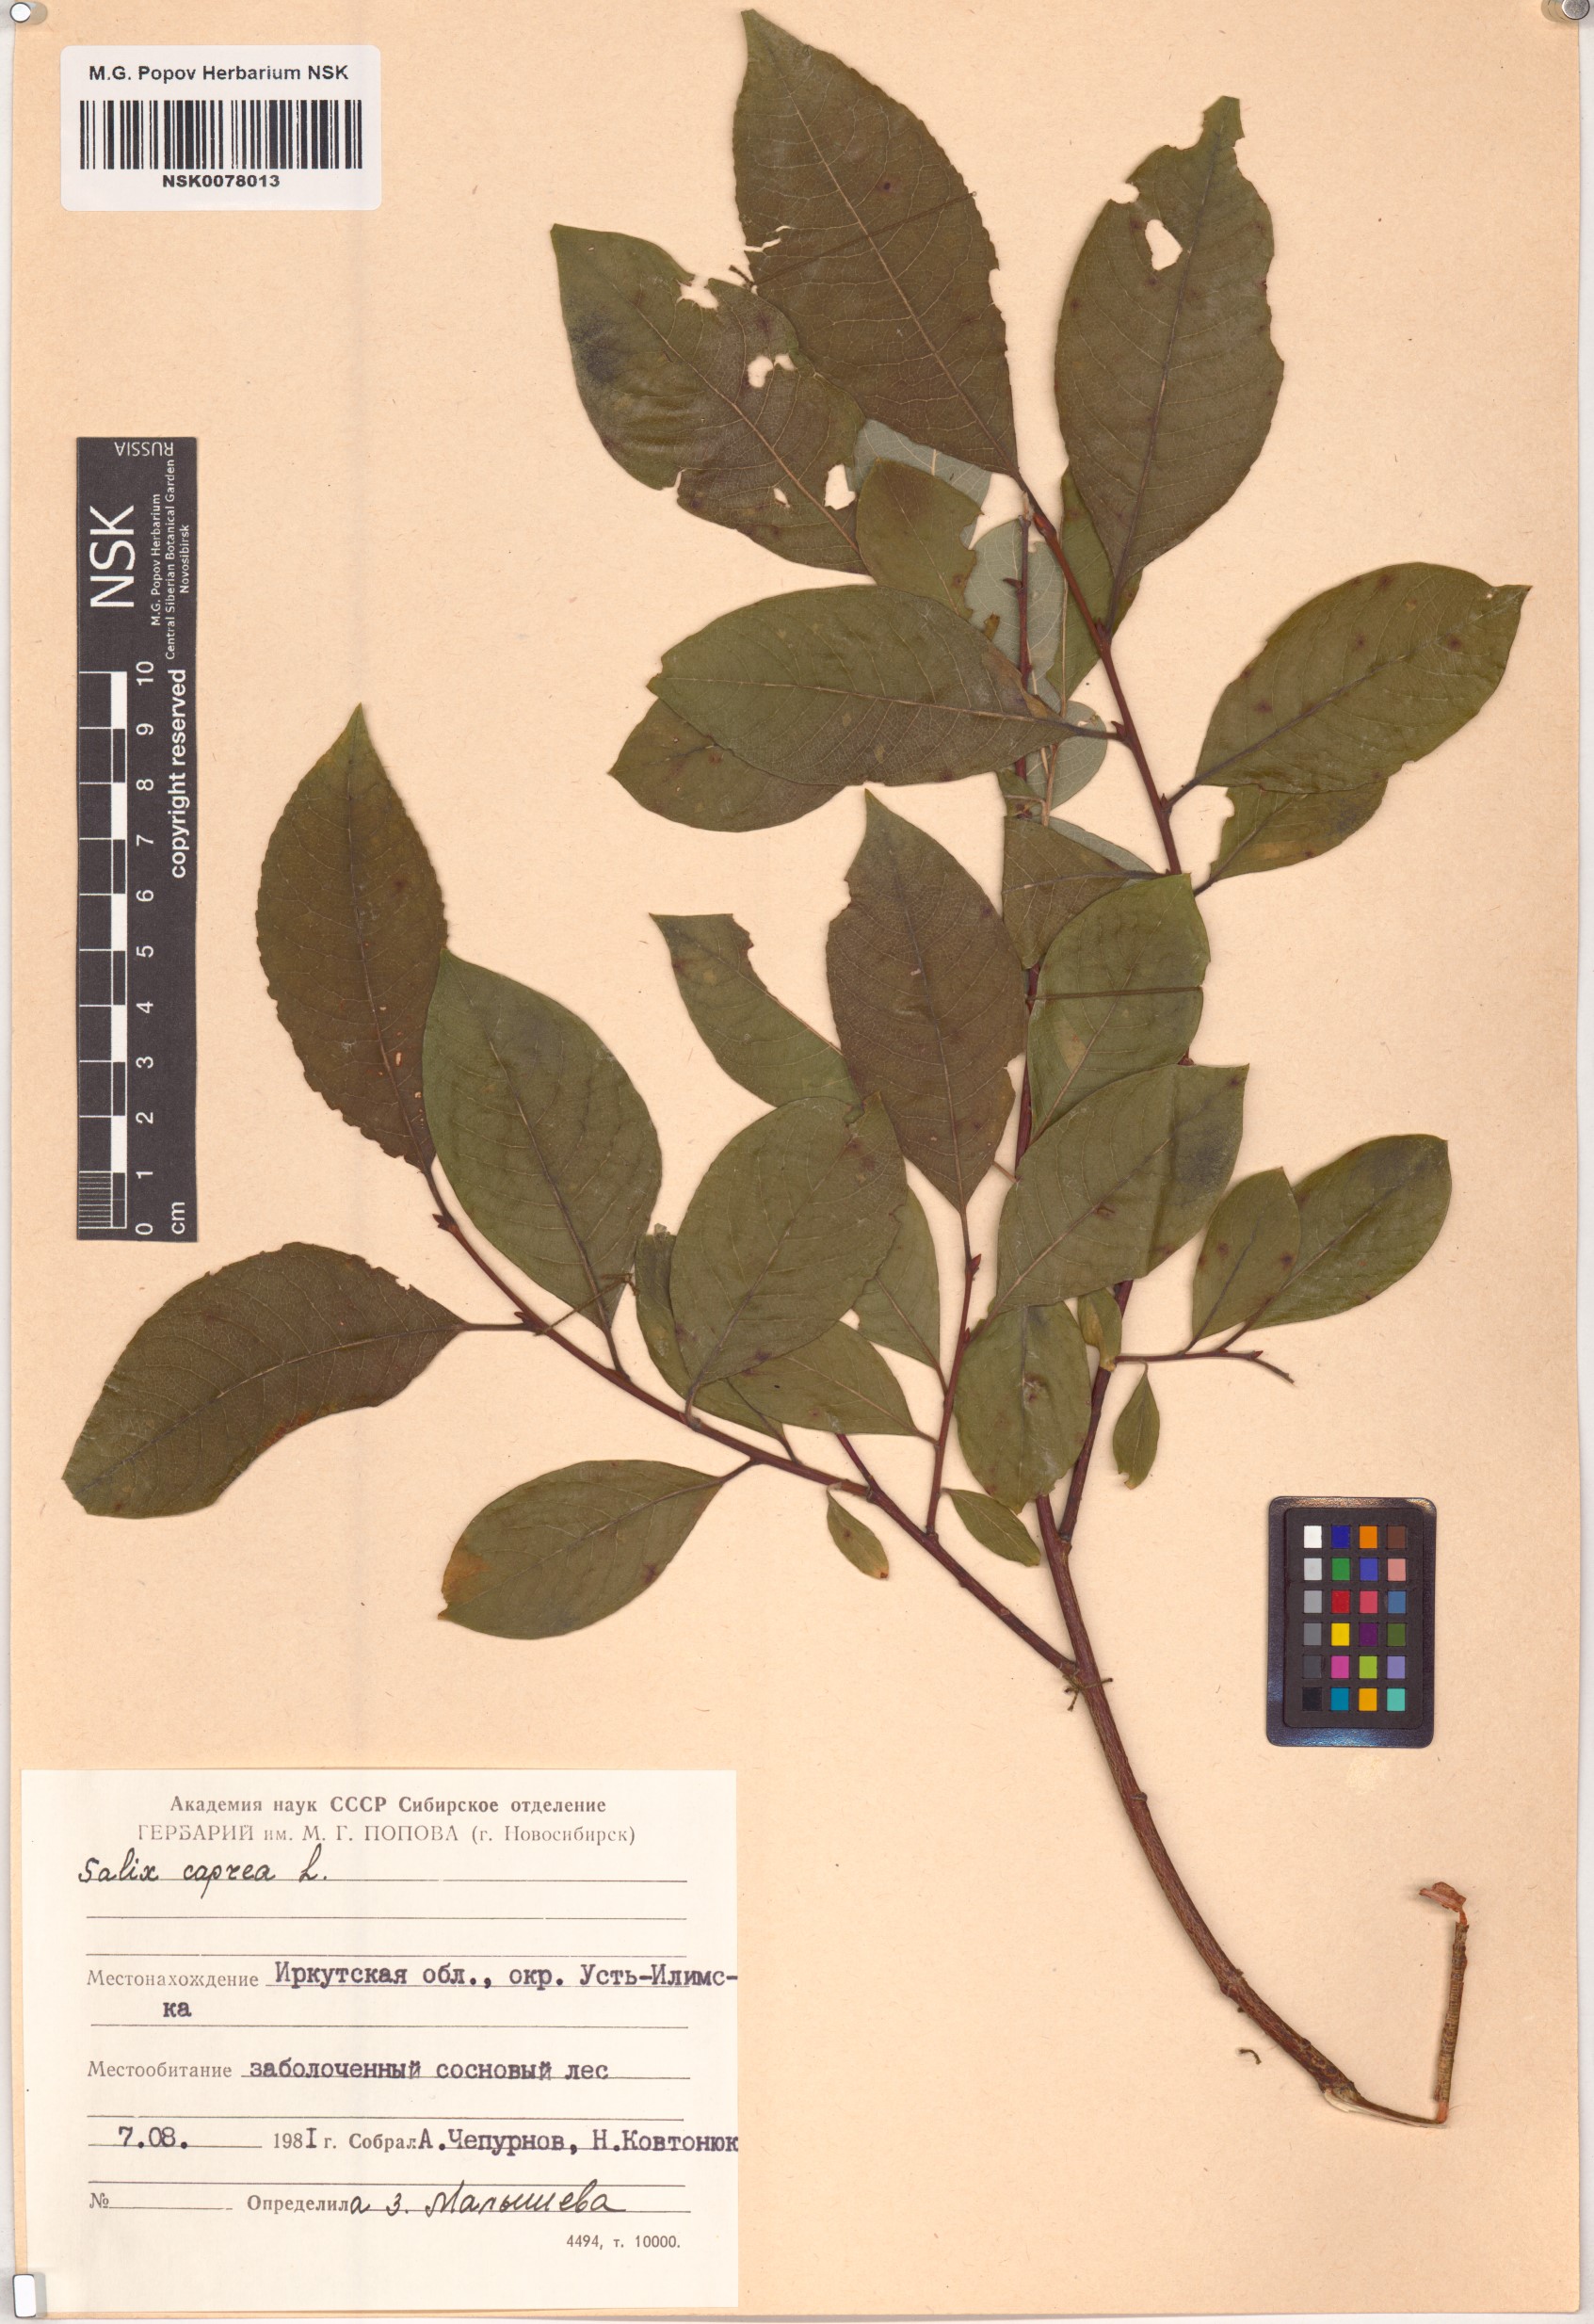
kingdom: Plantae
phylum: Tracheophyta
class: Magnoliopsida
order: Malpighiales
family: Salicaceae
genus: Salix
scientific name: Salix caprea
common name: Goat willow
